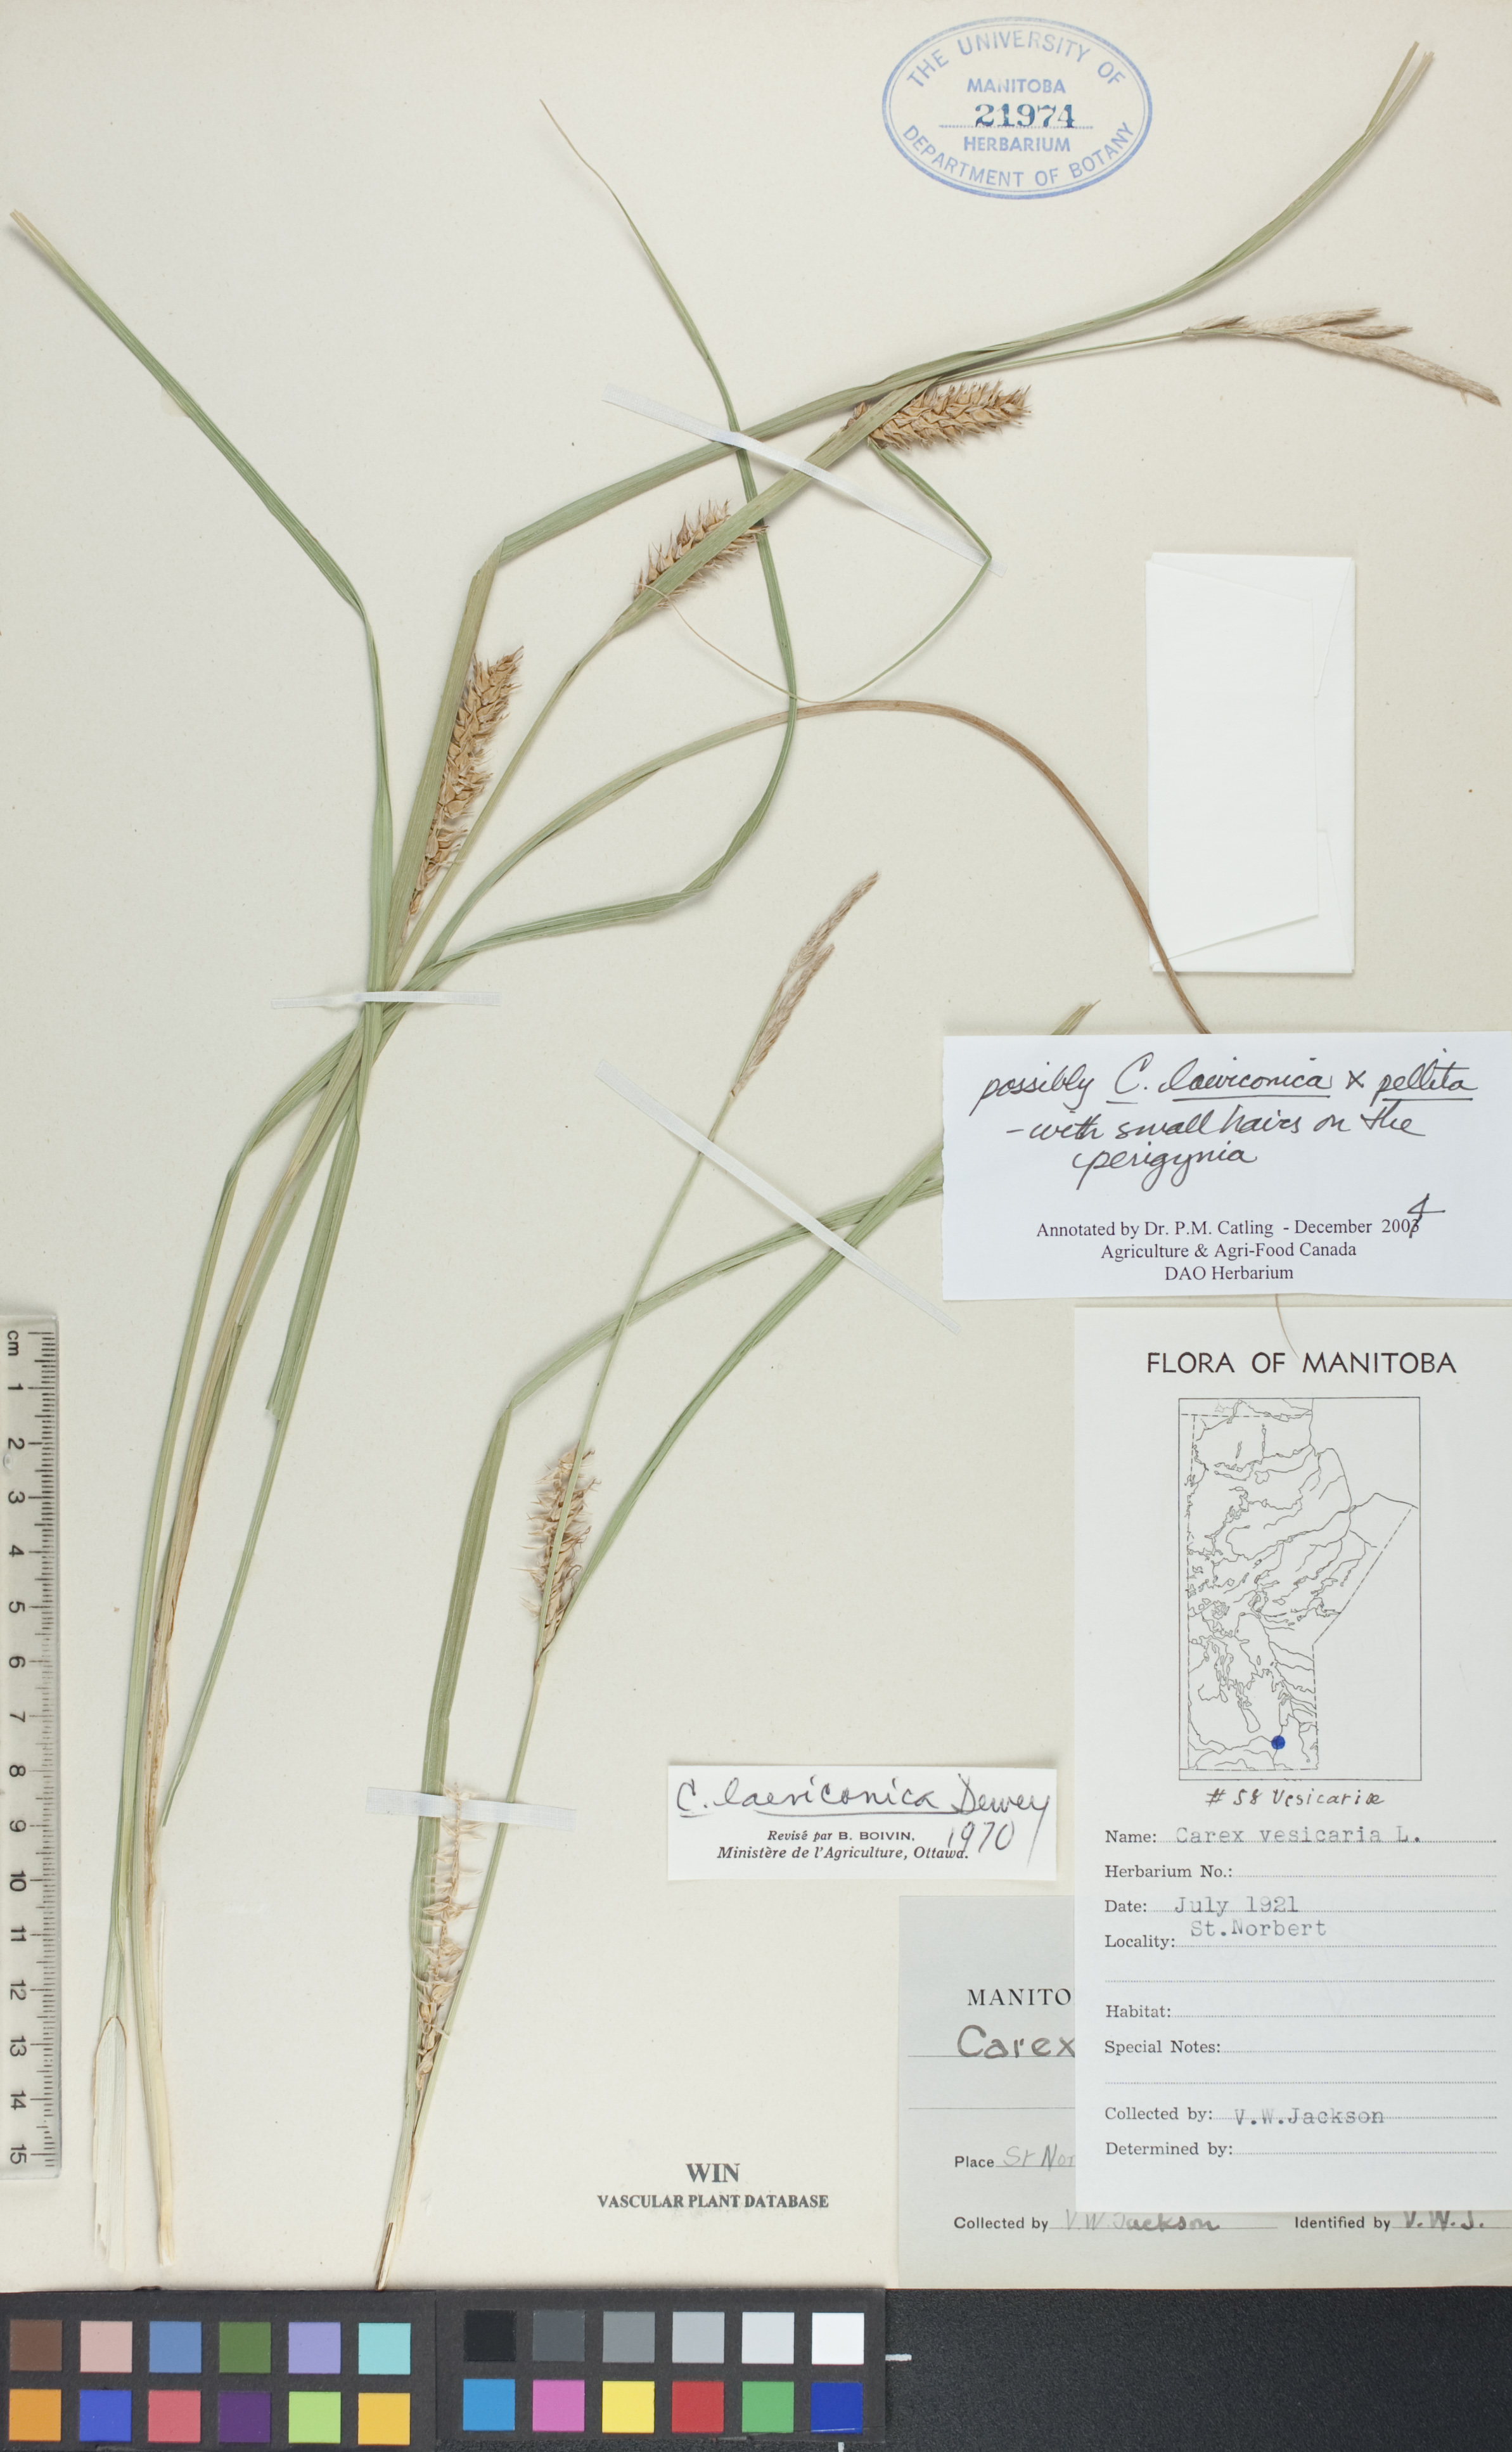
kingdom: Plantae
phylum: Tracheophyta
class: Liliopsida
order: Poales
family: Cyperaceae
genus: Carex
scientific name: Carex laeviconica
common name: Plains slough sedge
